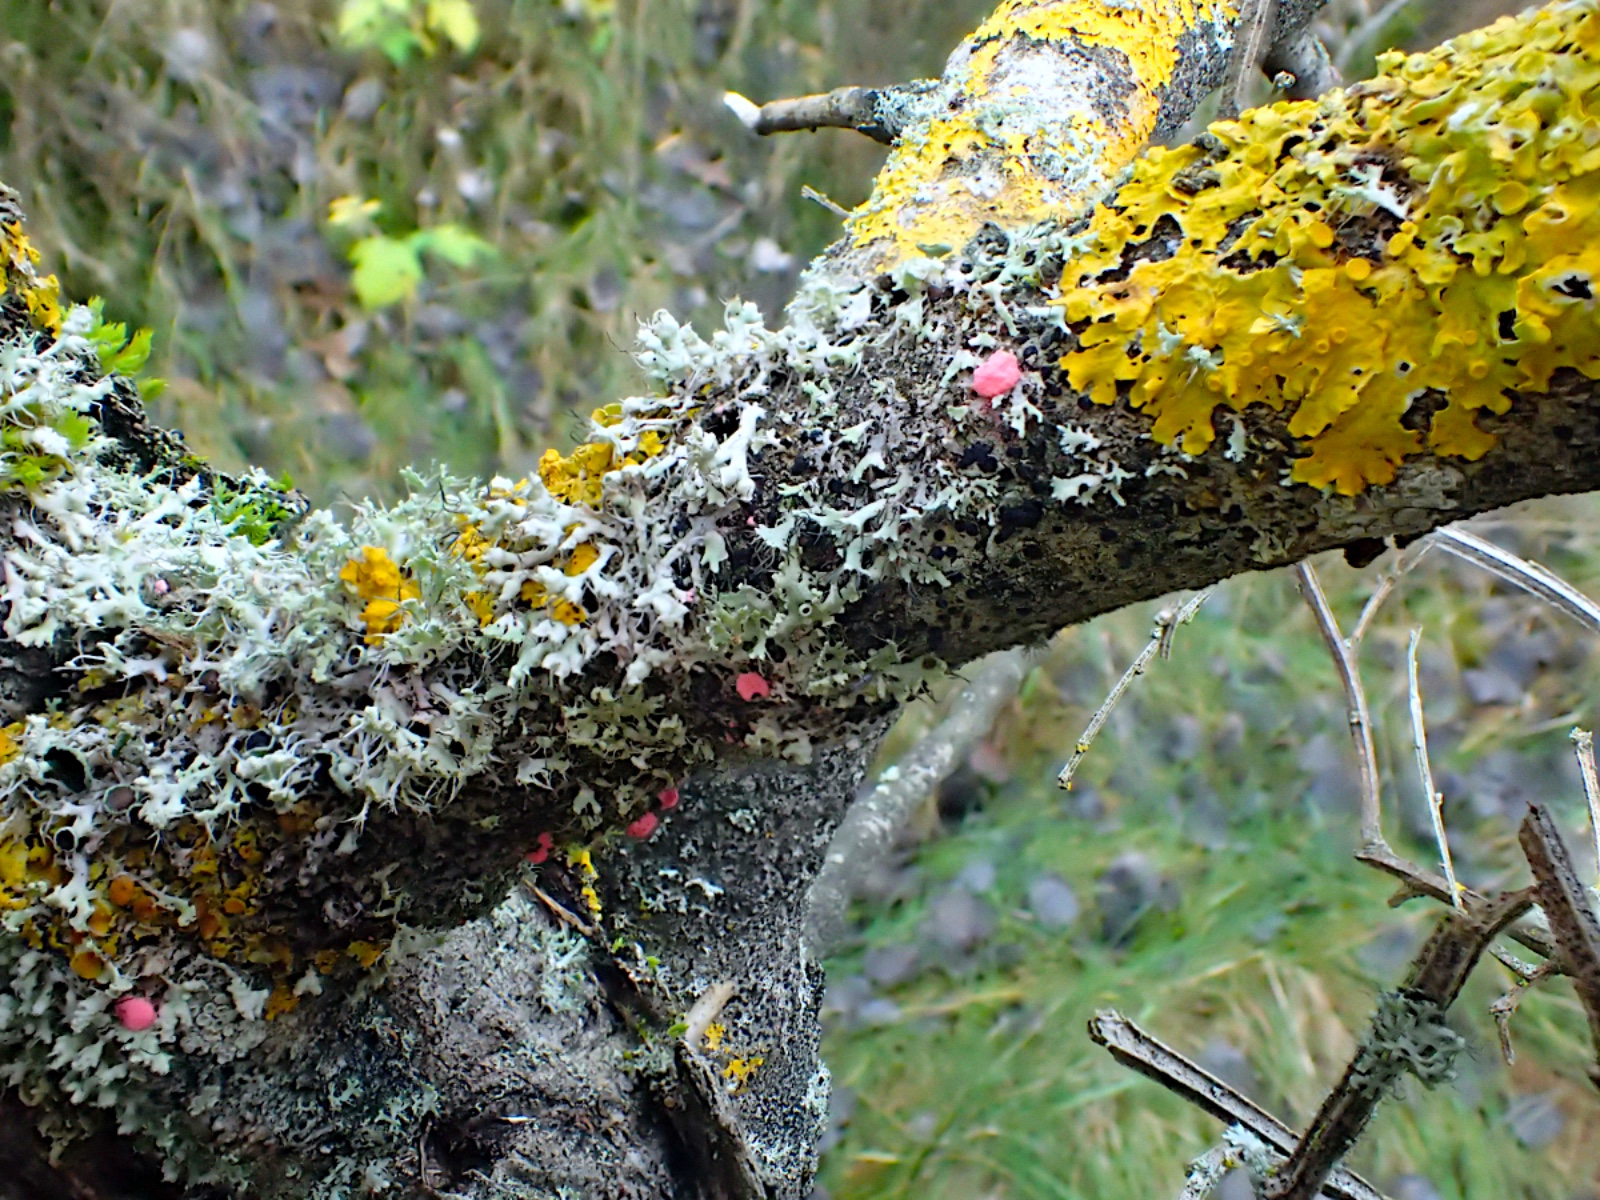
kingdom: Fungi
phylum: Ascomycota
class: Sordariomycetes
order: Hypocreales
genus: Illosporiopsis
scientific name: Illosporiopsis christiansenii
